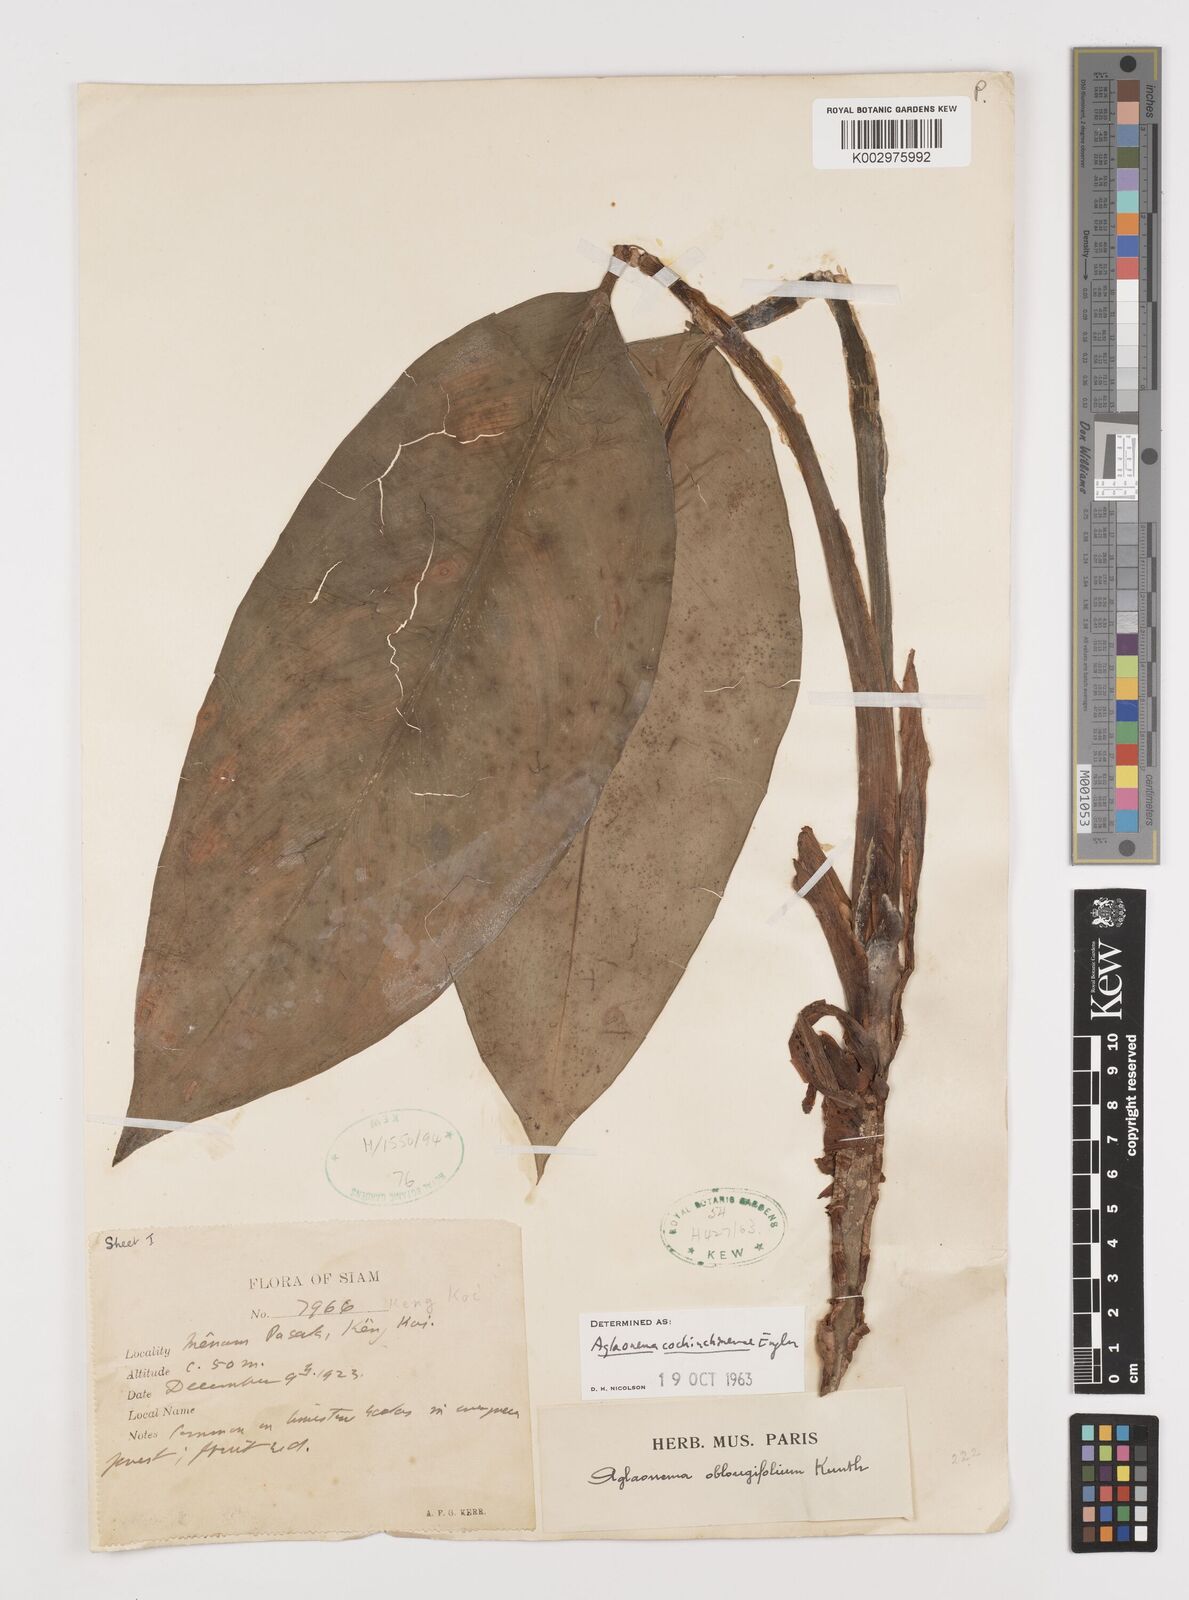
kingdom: Plantae
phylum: Tracheophyta
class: Liliopsida
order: Alismatales
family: Araceae
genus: Aglaonema
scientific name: Aglaonema cochinchinense
